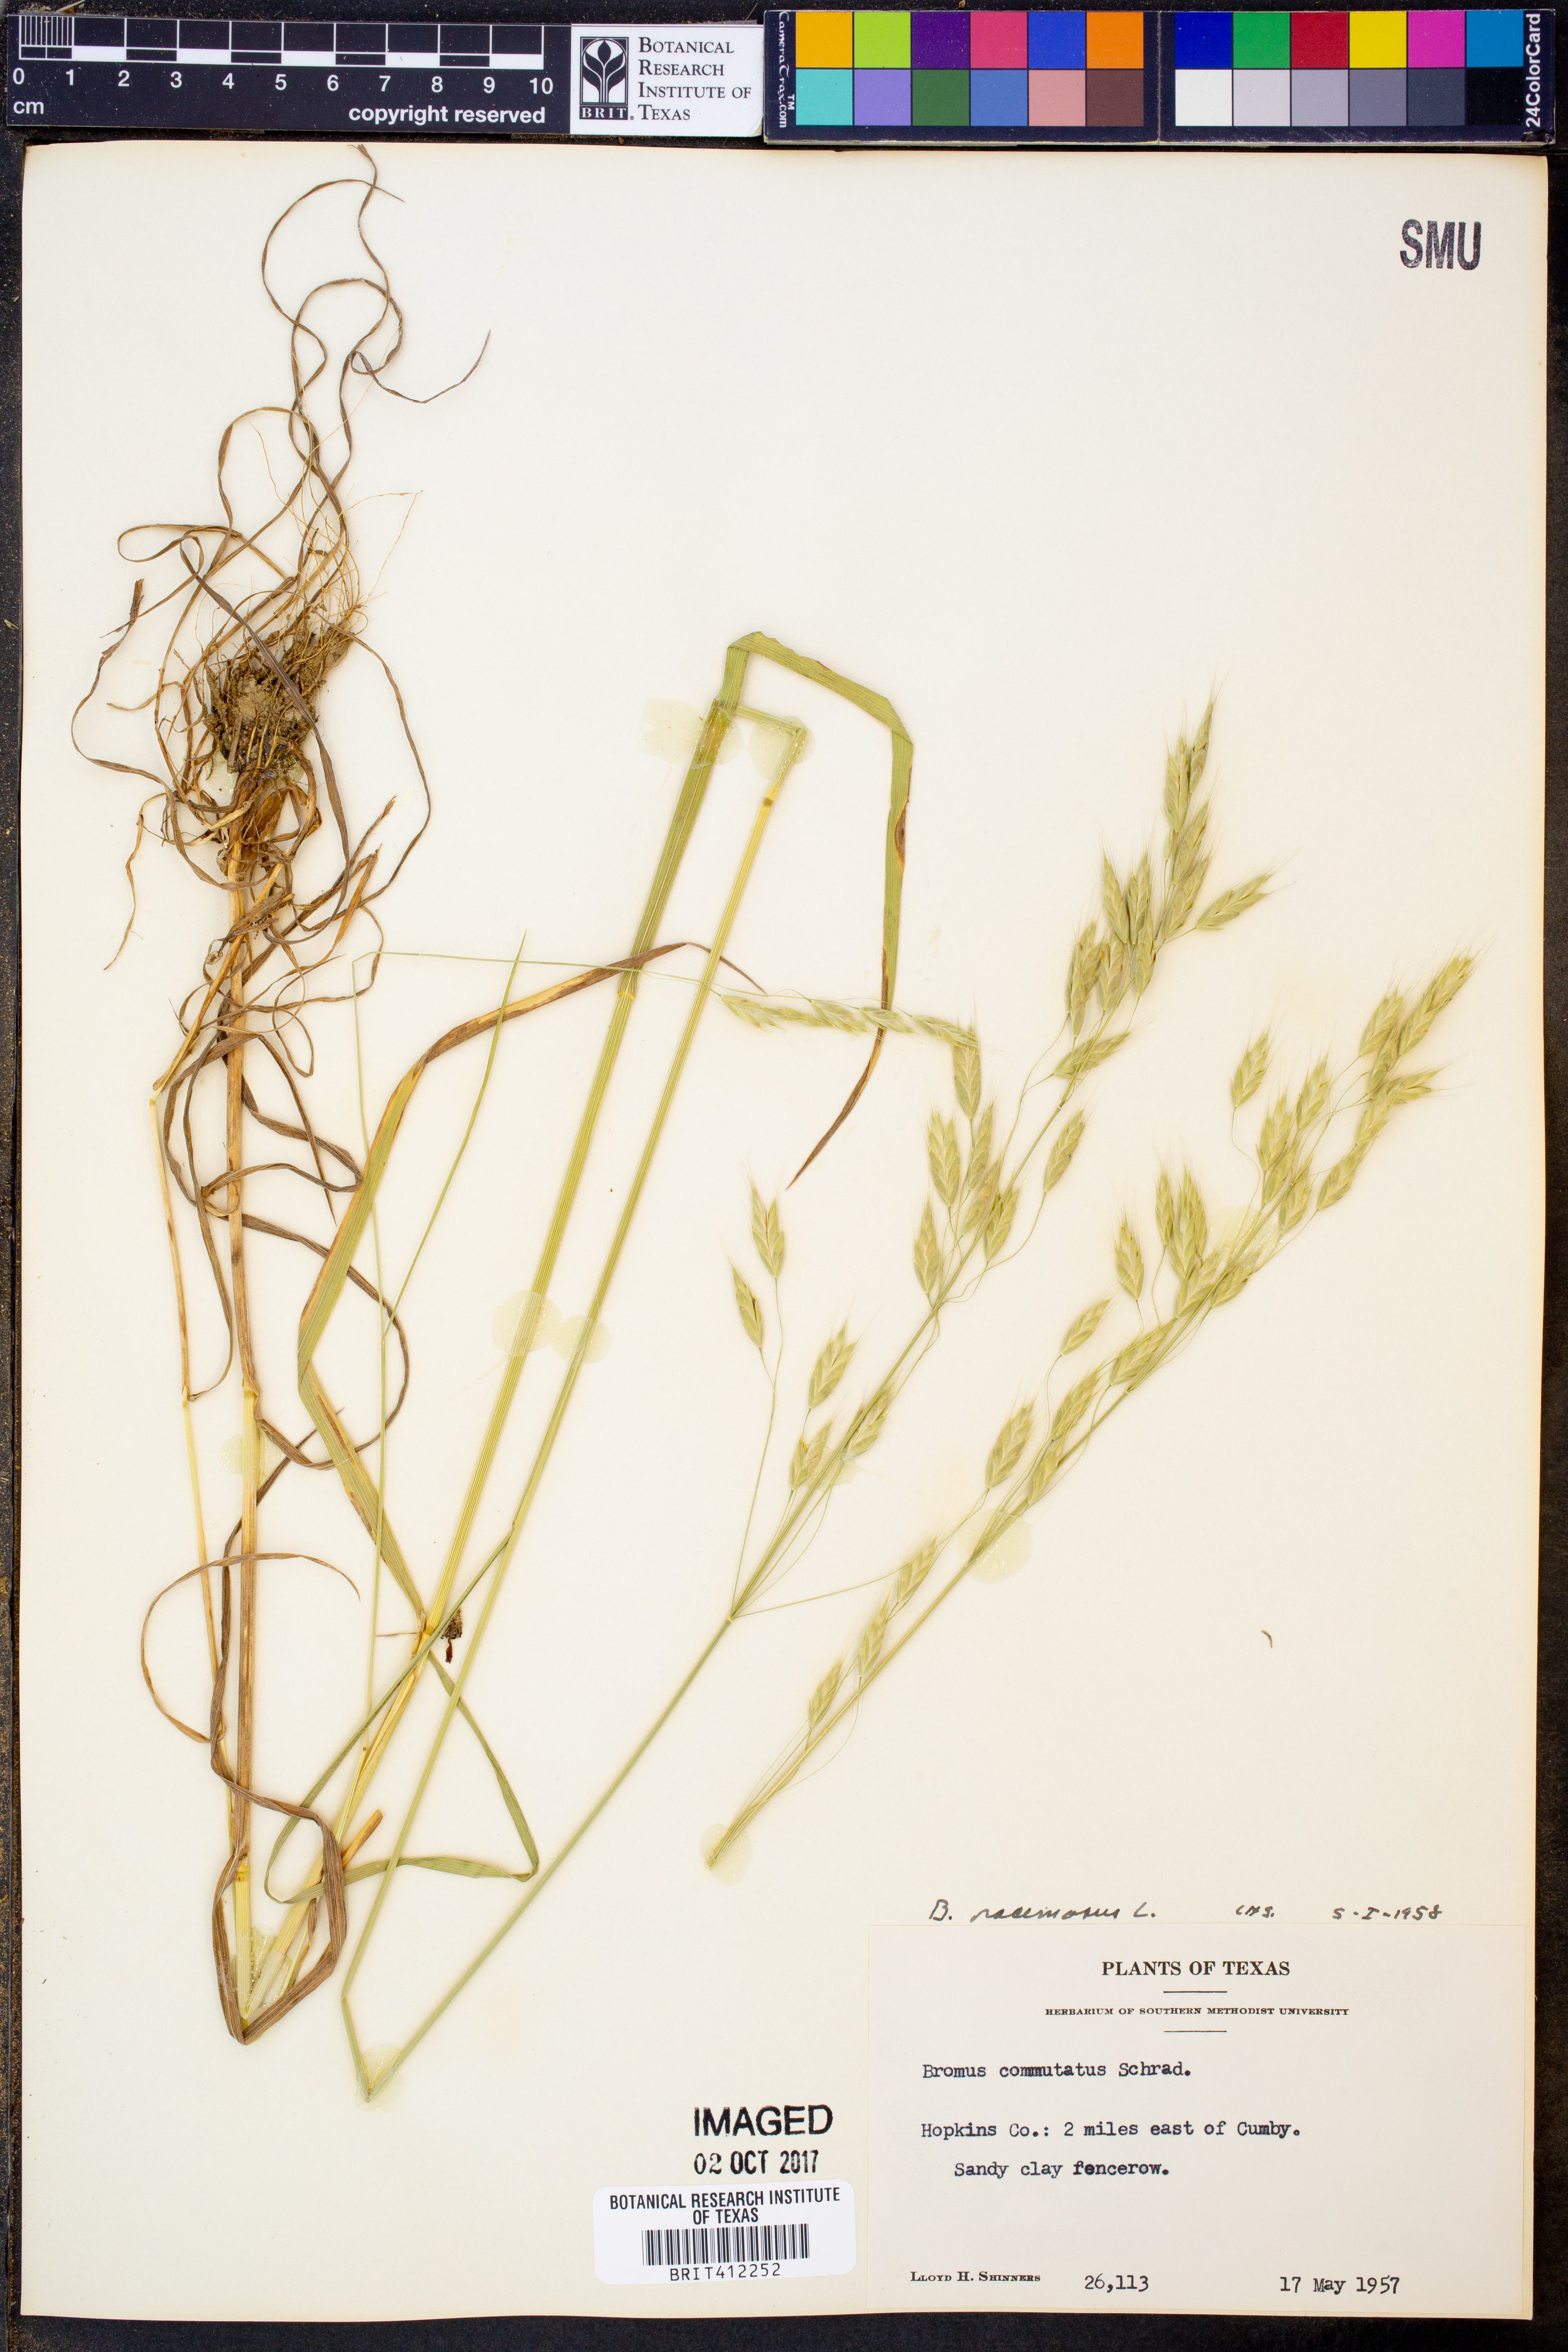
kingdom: Plantae
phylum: Tracheophyta
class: Liliopsida
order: Poales
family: Poaceae
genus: Bromus
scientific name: Bromus racemosus
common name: Bald brome
